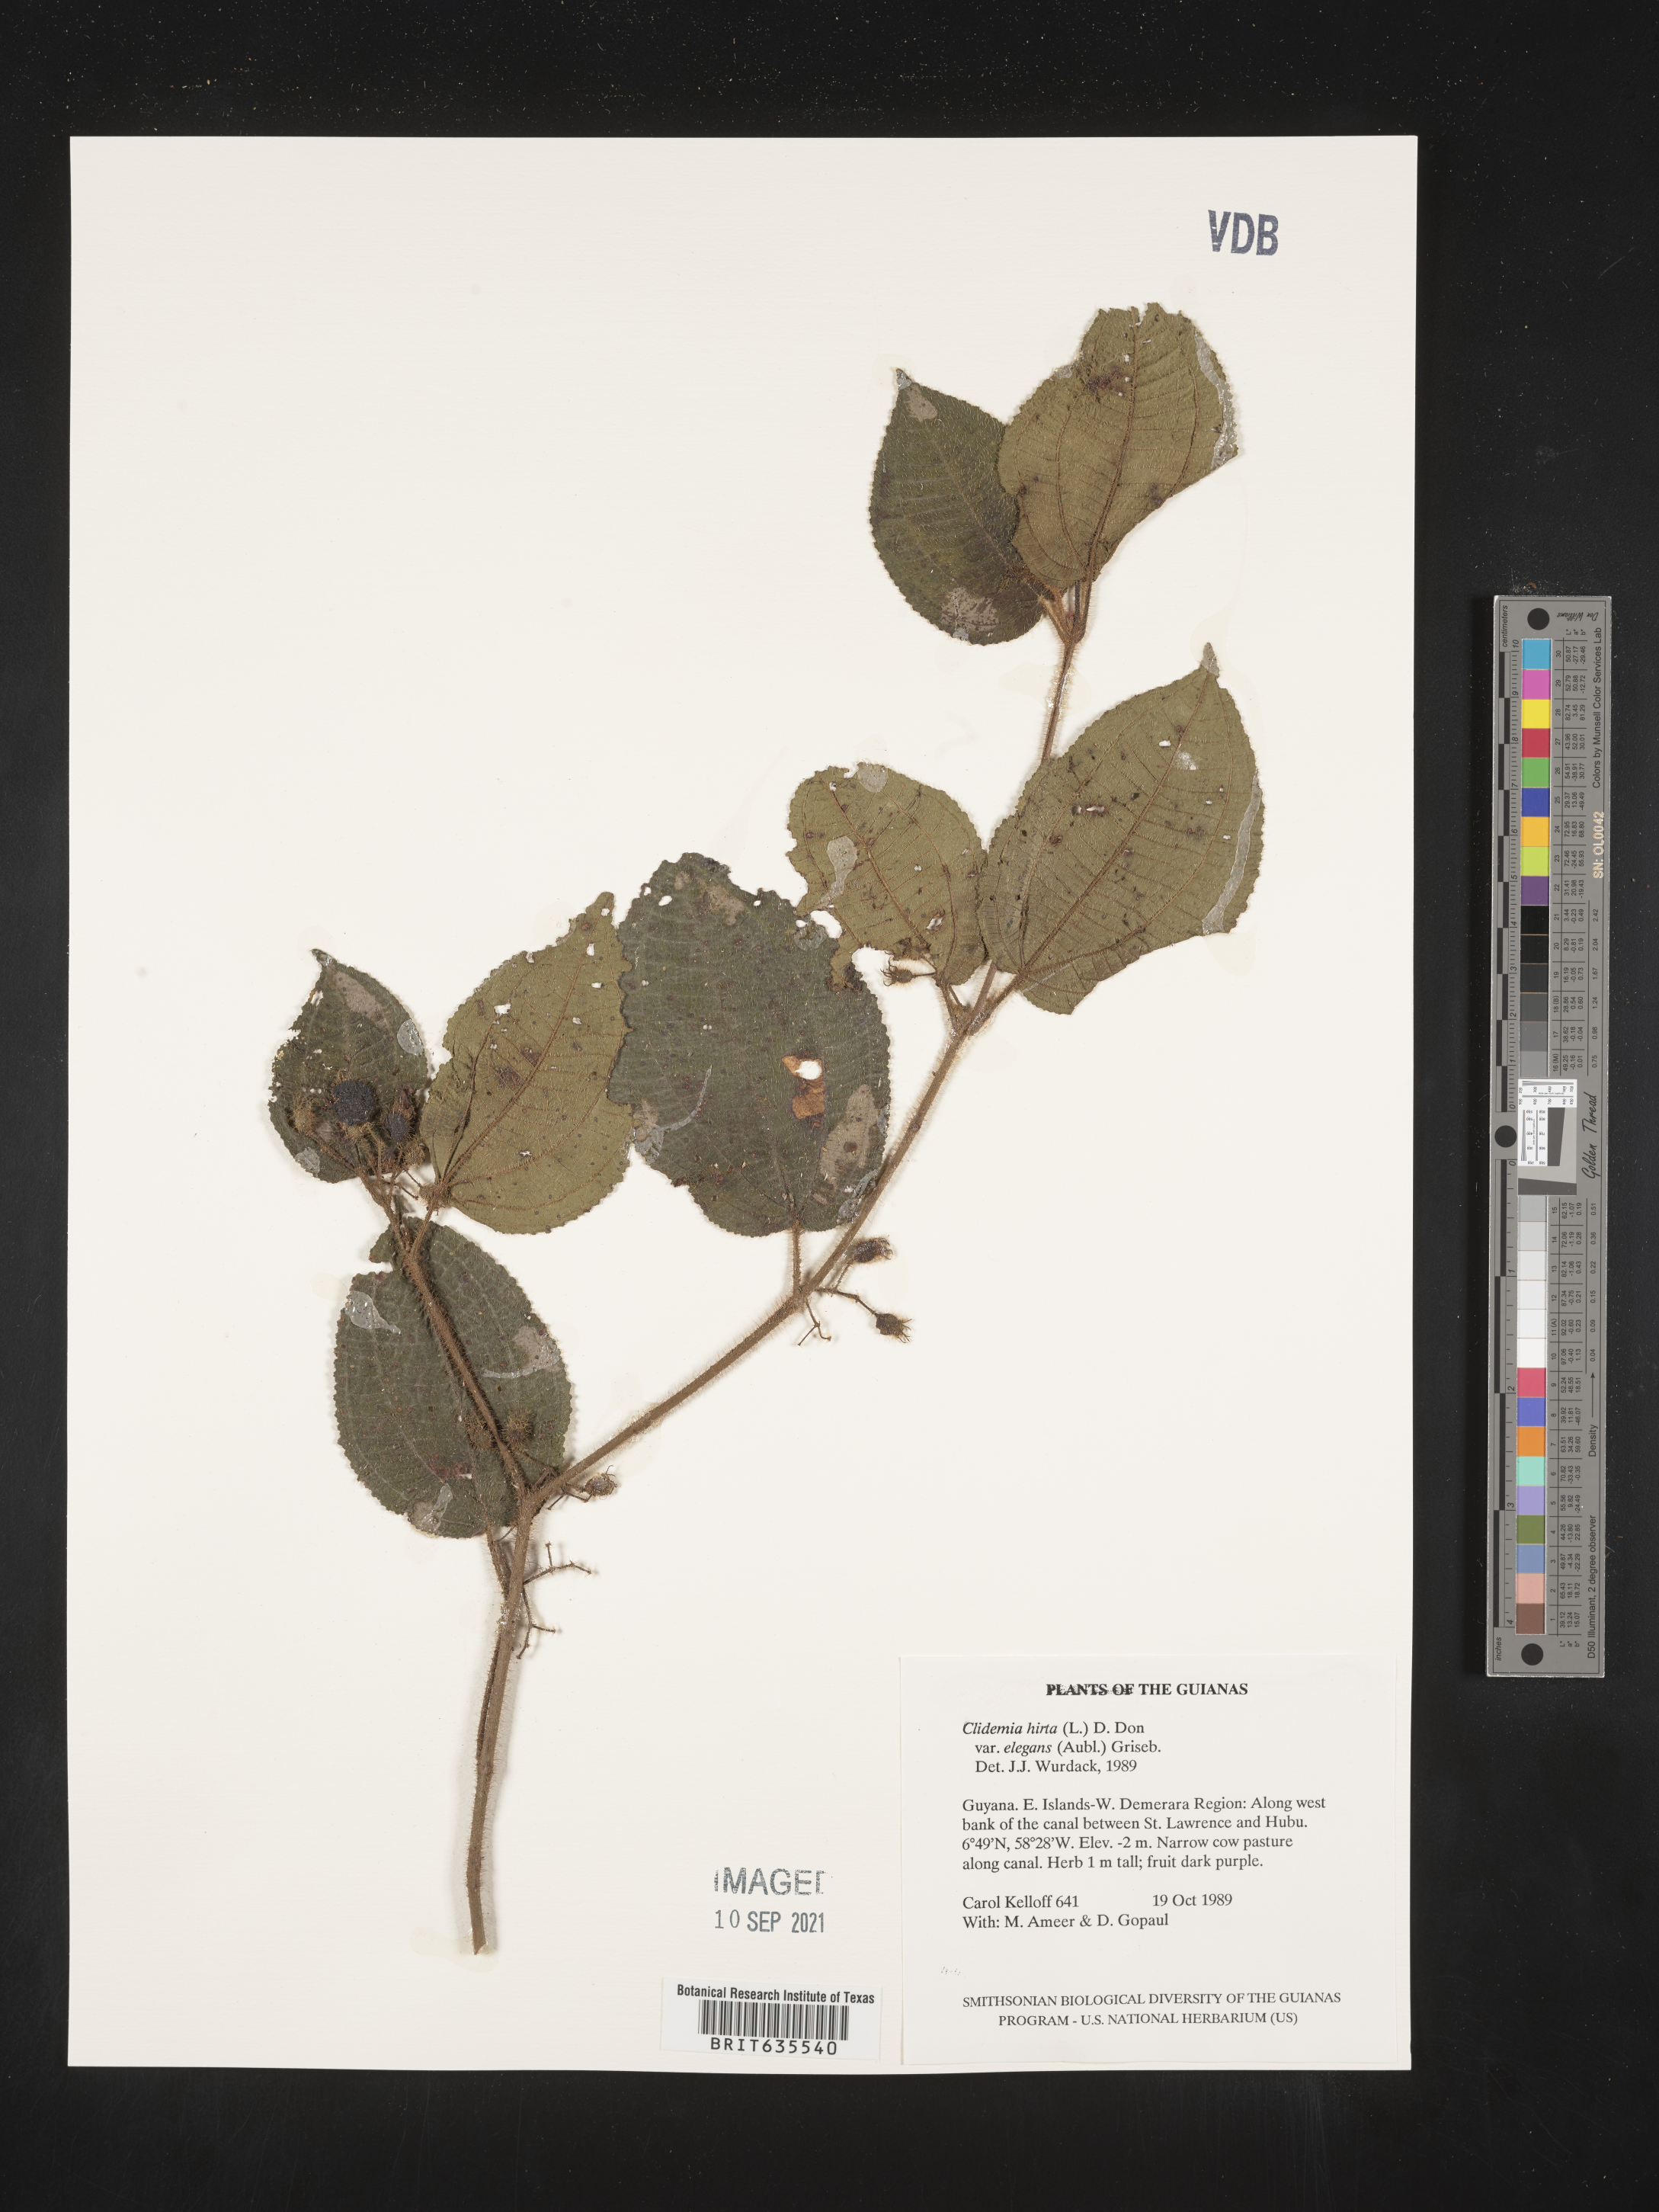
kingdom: Plantae
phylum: Tracheophyta
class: Magnoliopsida
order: Myrtales
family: Melastomataceae
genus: Miconia
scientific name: Miconia
